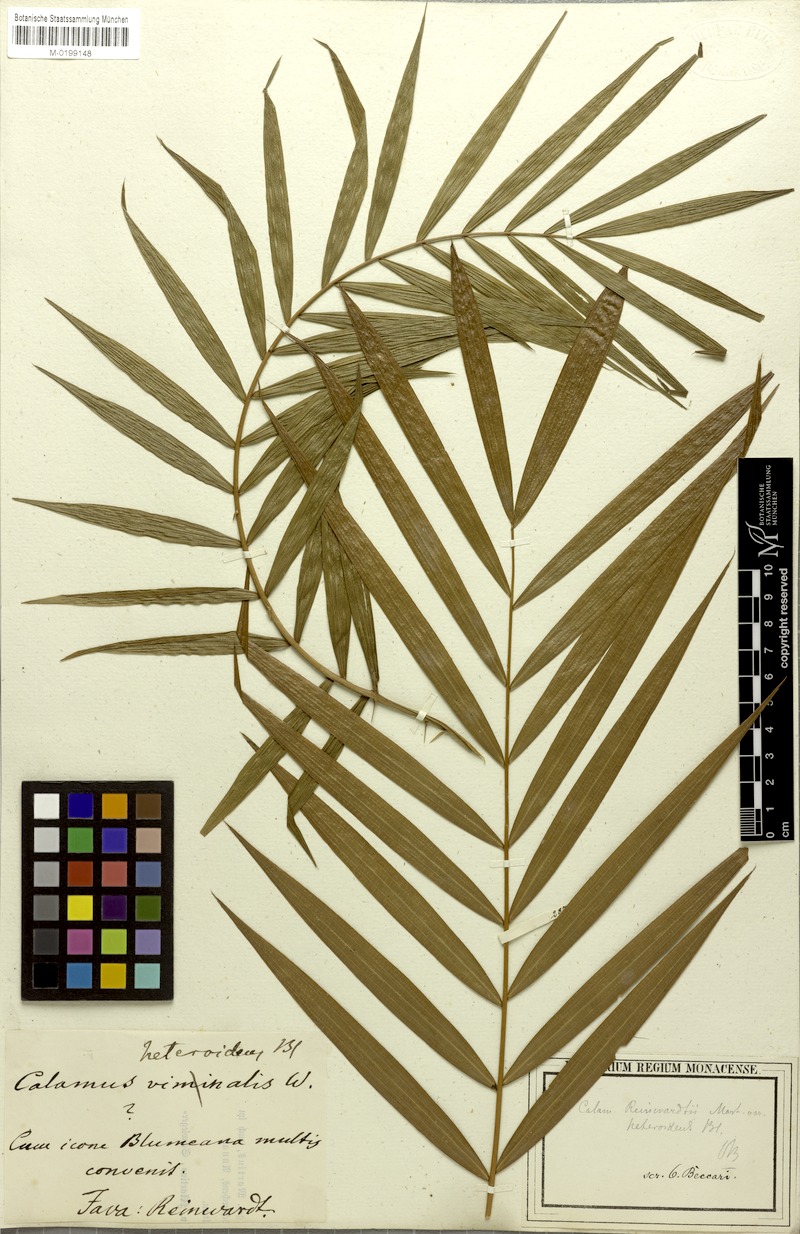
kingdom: Plantae
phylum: Tracheophyta
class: Liliopsida
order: Arecales
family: Arecaceae
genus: Calamus
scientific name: Calamus heteroideus
